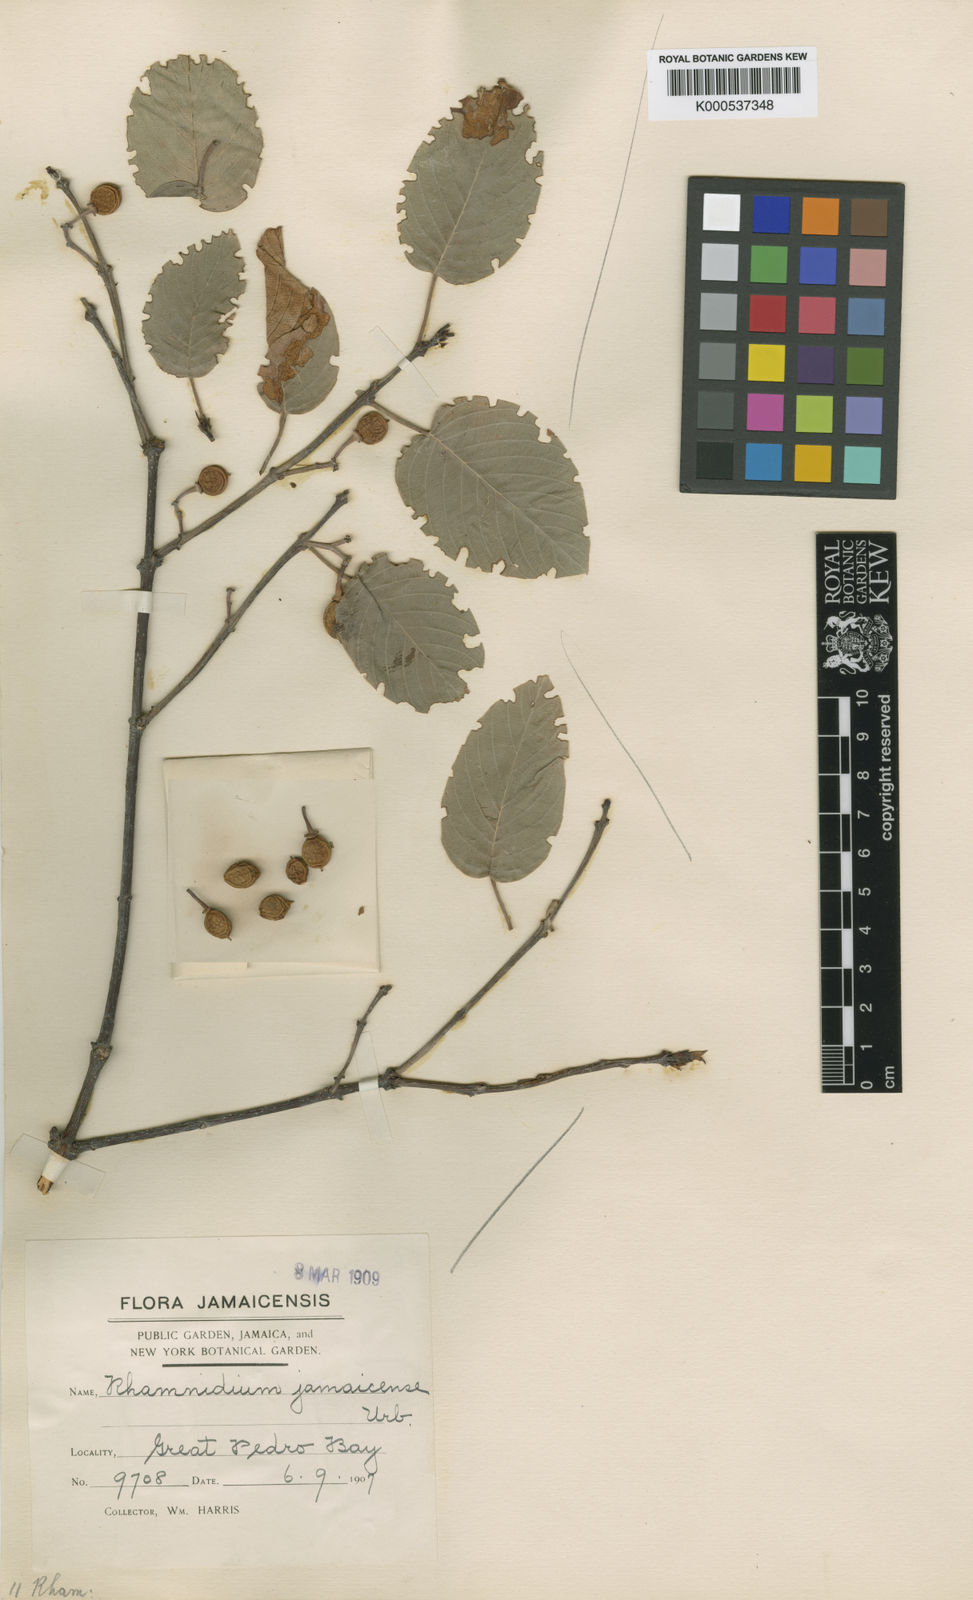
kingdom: Plantae
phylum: Tracheophyta
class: Magnoliopsida
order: Rosales
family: Rhamnaceae
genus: Auerodendron
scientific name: Auerodendron jamaicense
